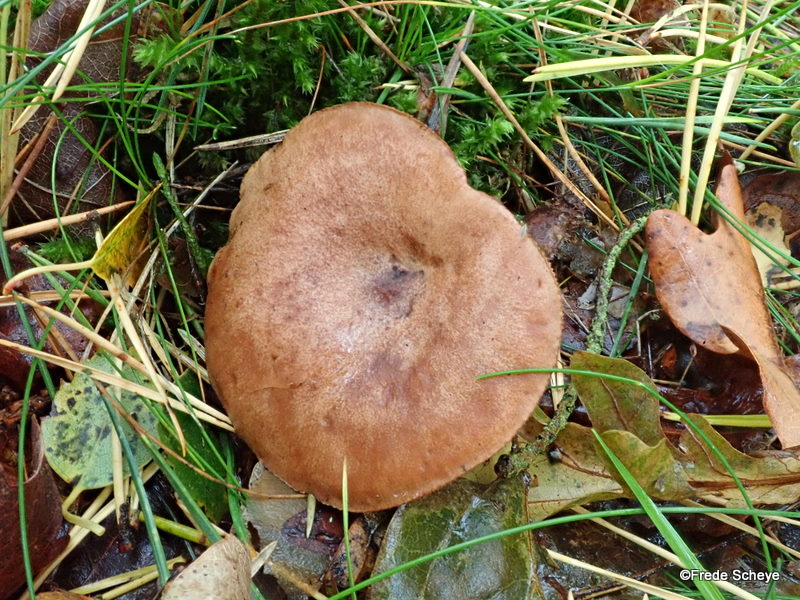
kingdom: Fungi
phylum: Basidiomycota
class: Agaricomycetes
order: Russulales
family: Russulaceae
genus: Lactarius
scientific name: Lactarius quietus
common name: ege-mælkehat
